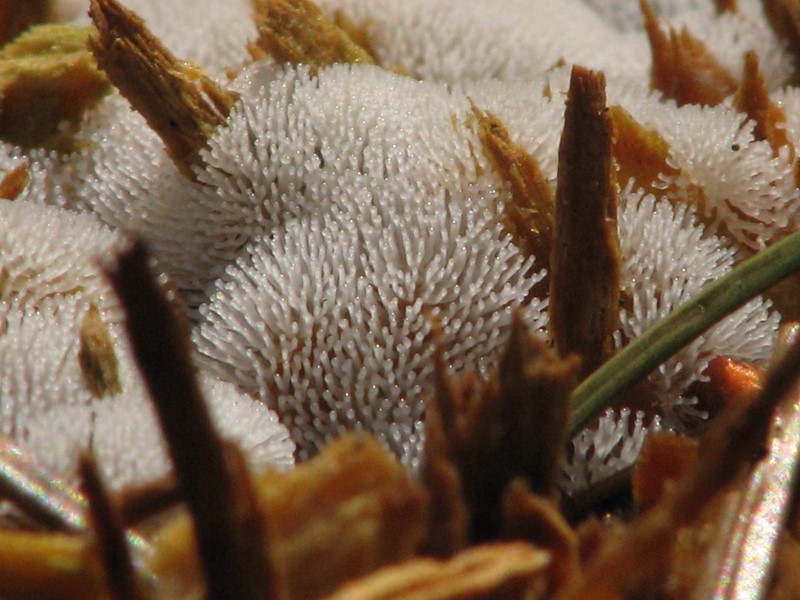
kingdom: Protozoa
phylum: Mycetozoa
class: Protosteliomycetes
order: Ceratiomyxales
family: Ceratiomyxaceae
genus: Ceratiomyxa
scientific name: Ceratiomyxa fruticulosa
